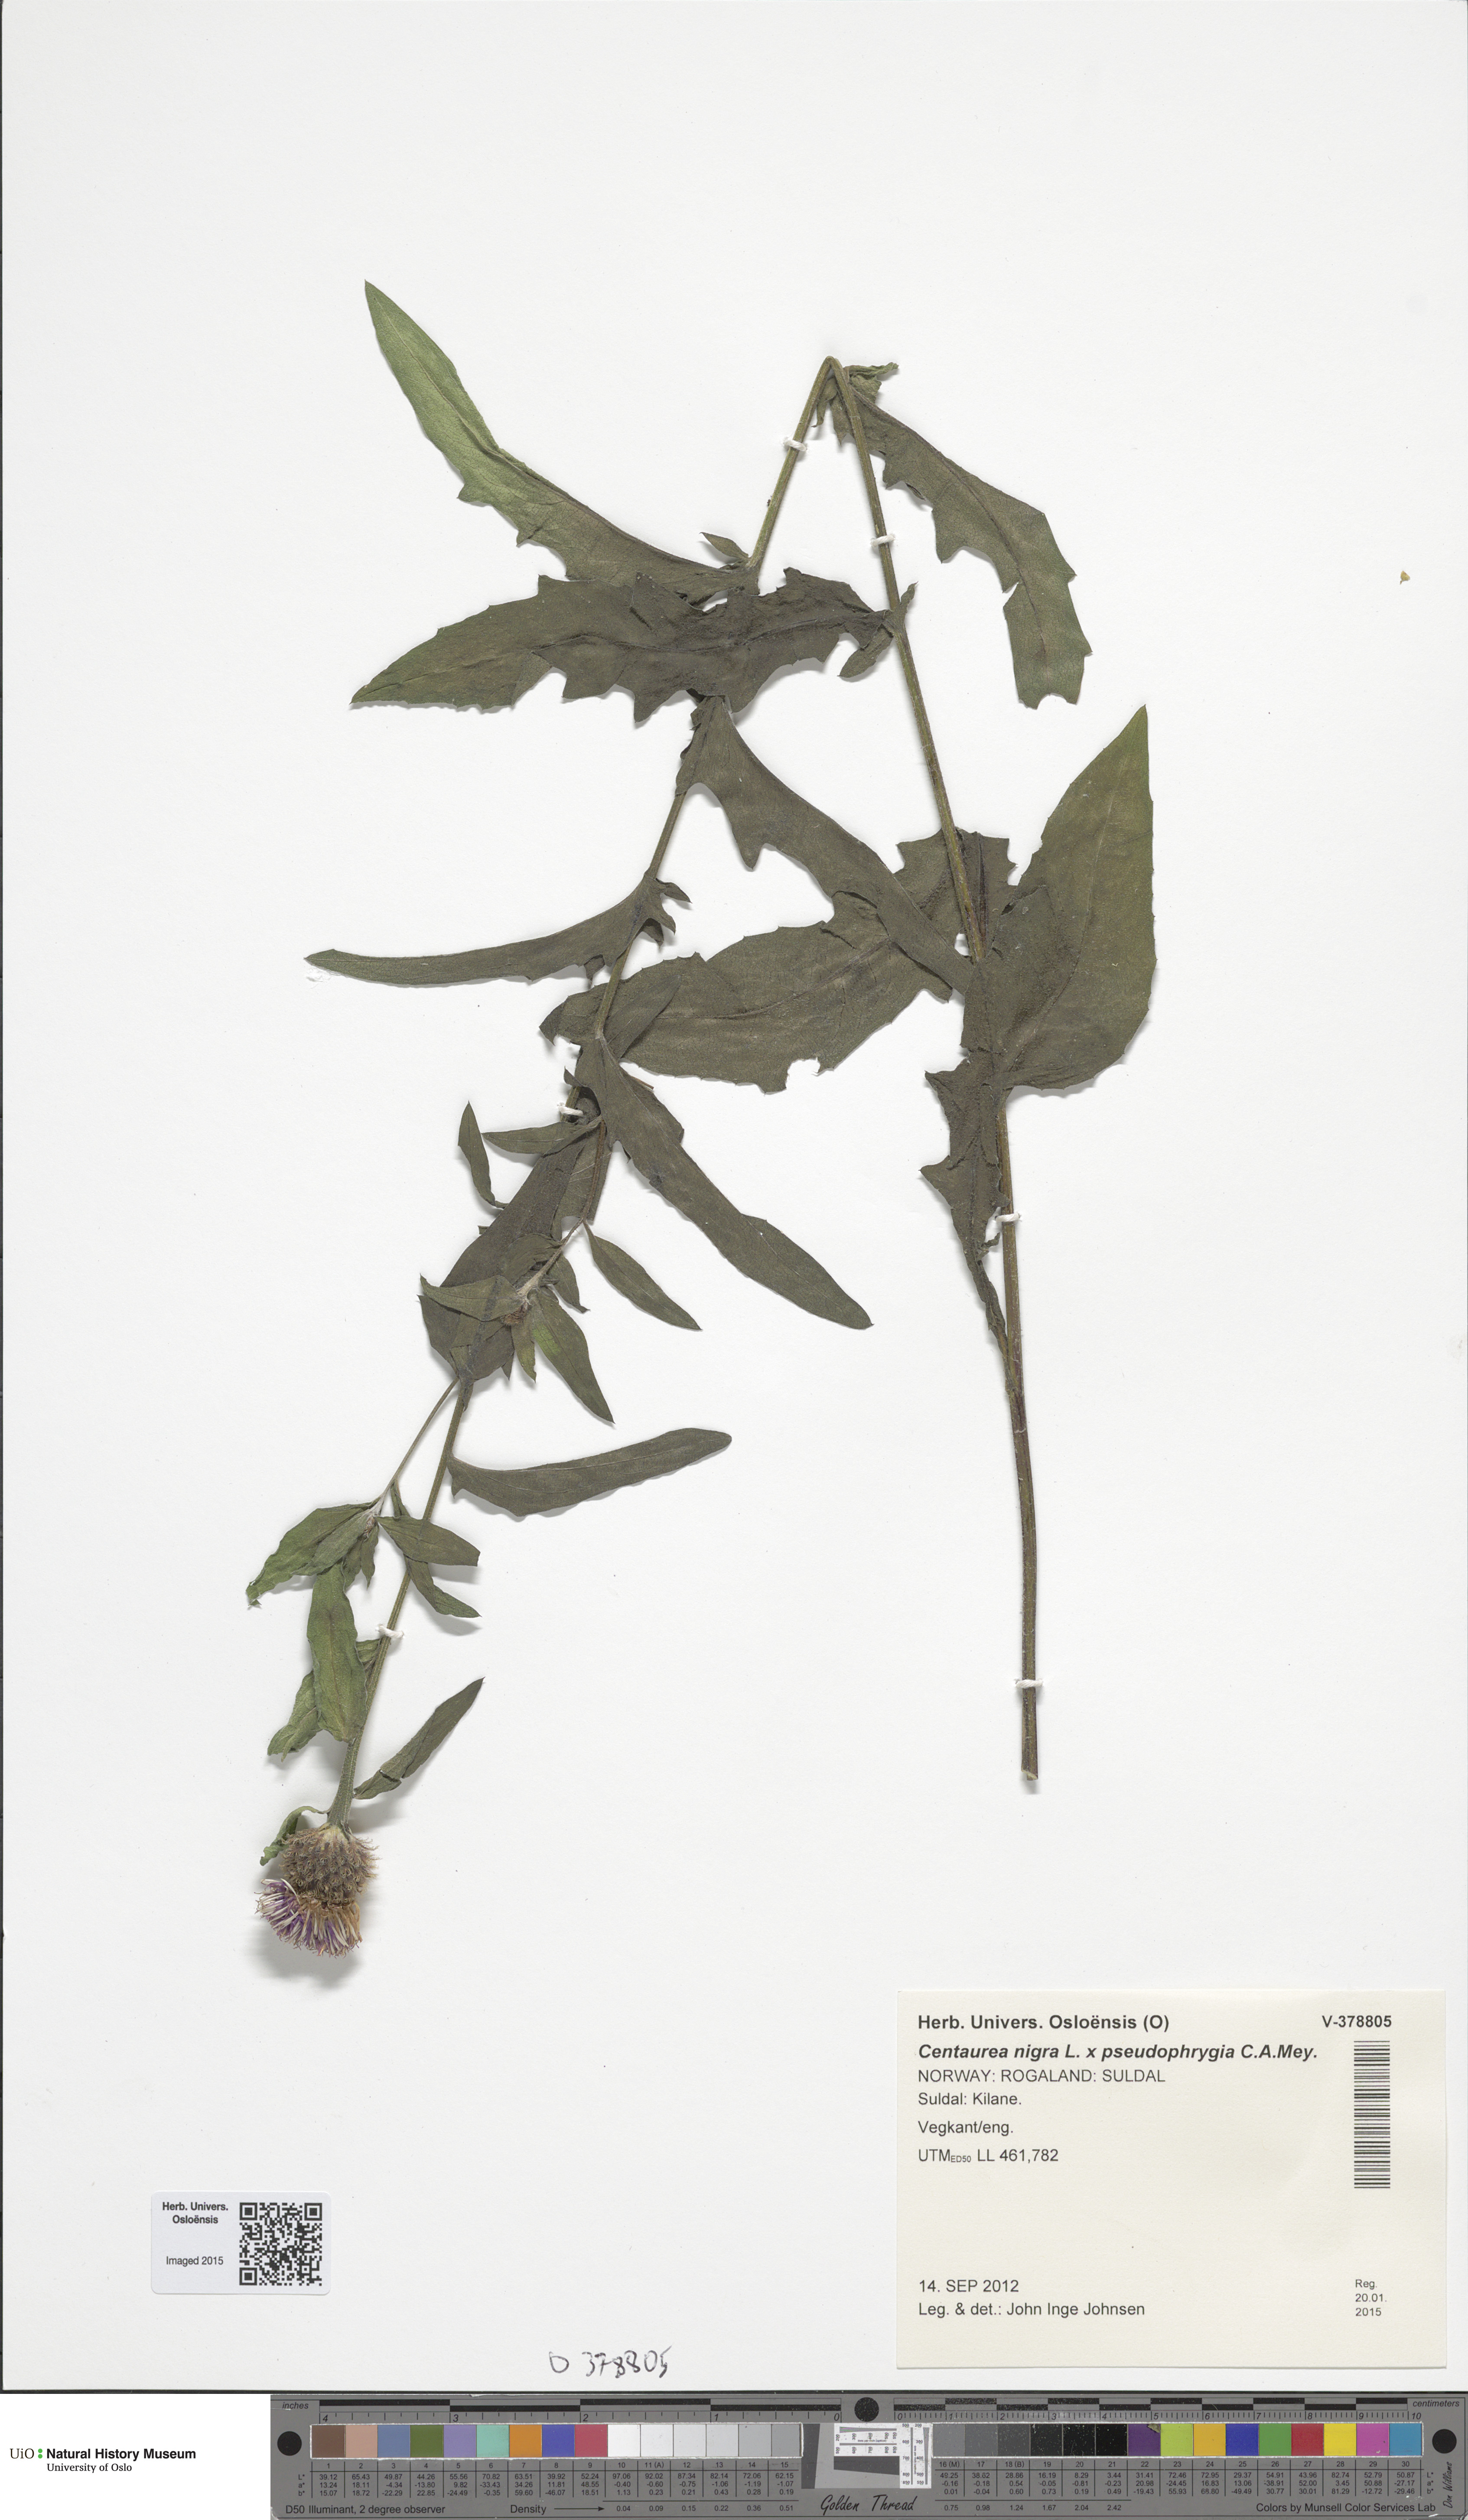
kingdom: Plantae
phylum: Tracheophyta
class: Magnoliopsida
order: Asterales
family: Asteraceae
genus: Centaurea
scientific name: Centaurea
